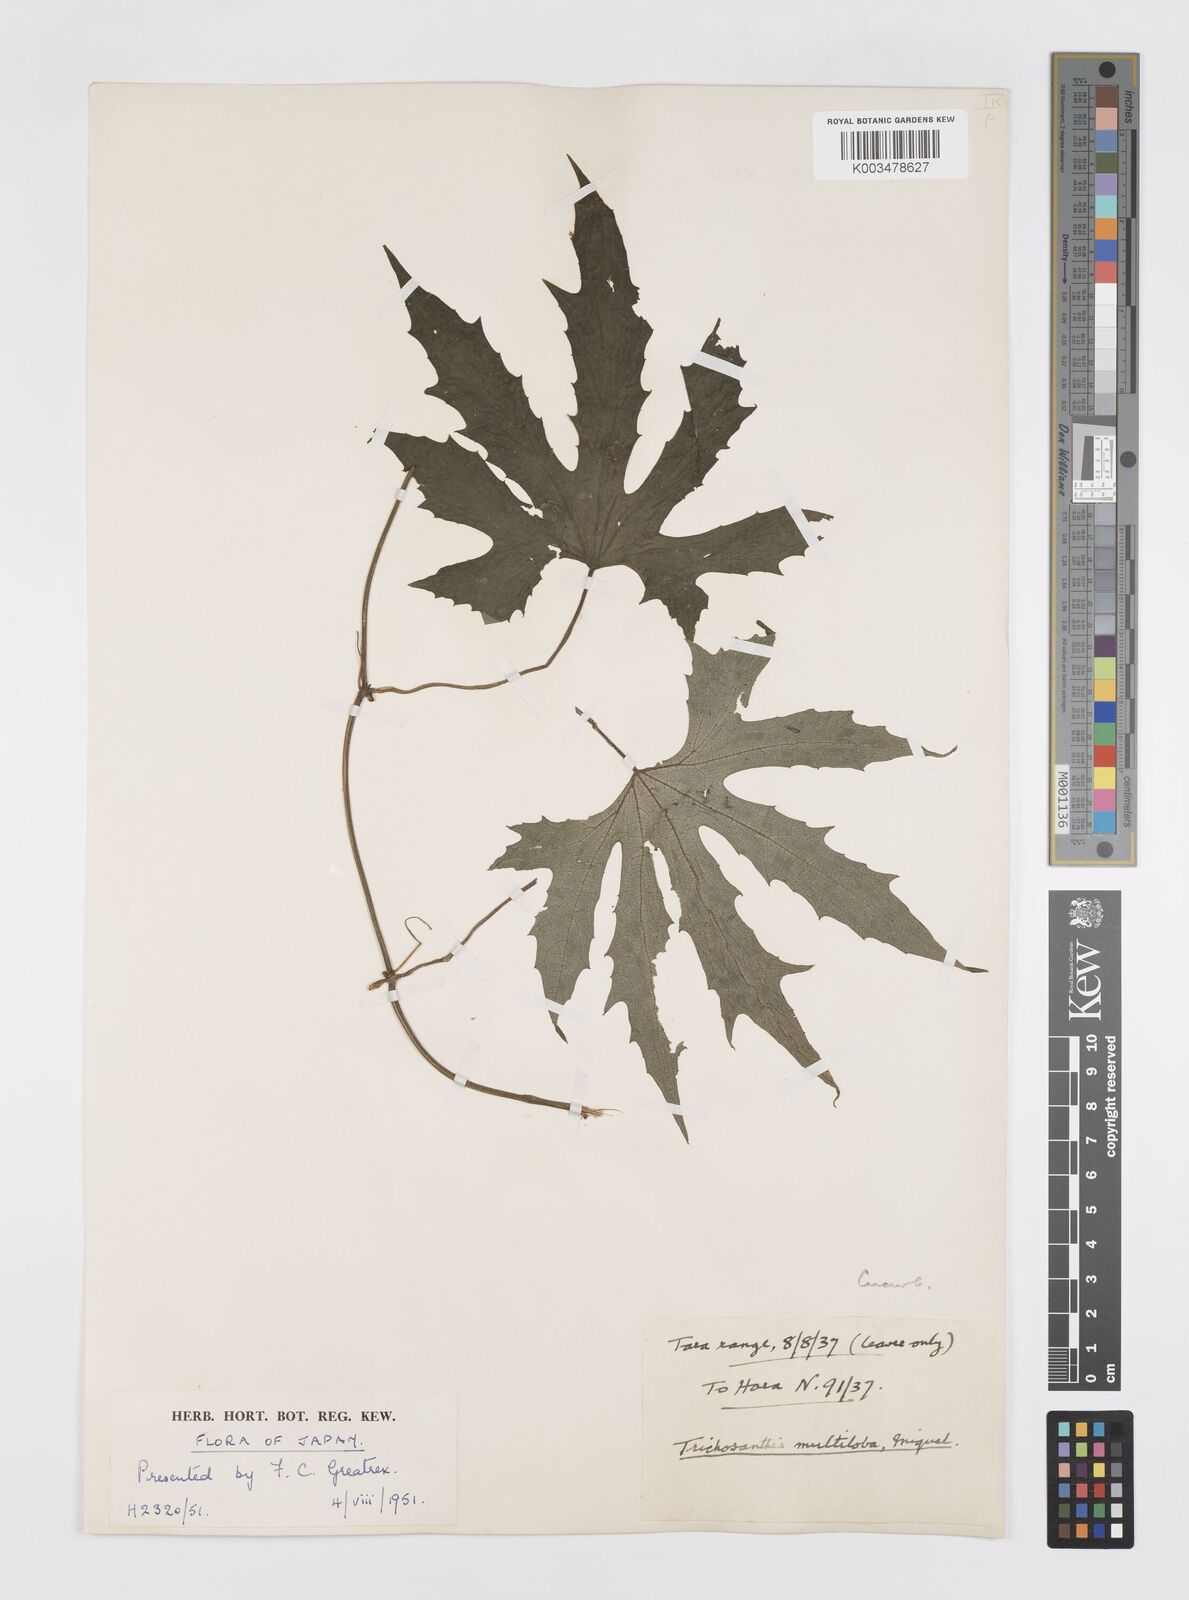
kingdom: Plantae
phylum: Tracheophyta
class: Magnoliopsida
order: Cucurbitales
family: Cucurbitaceae
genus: Trichosanthes
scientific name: Trichosanthes multiloba
